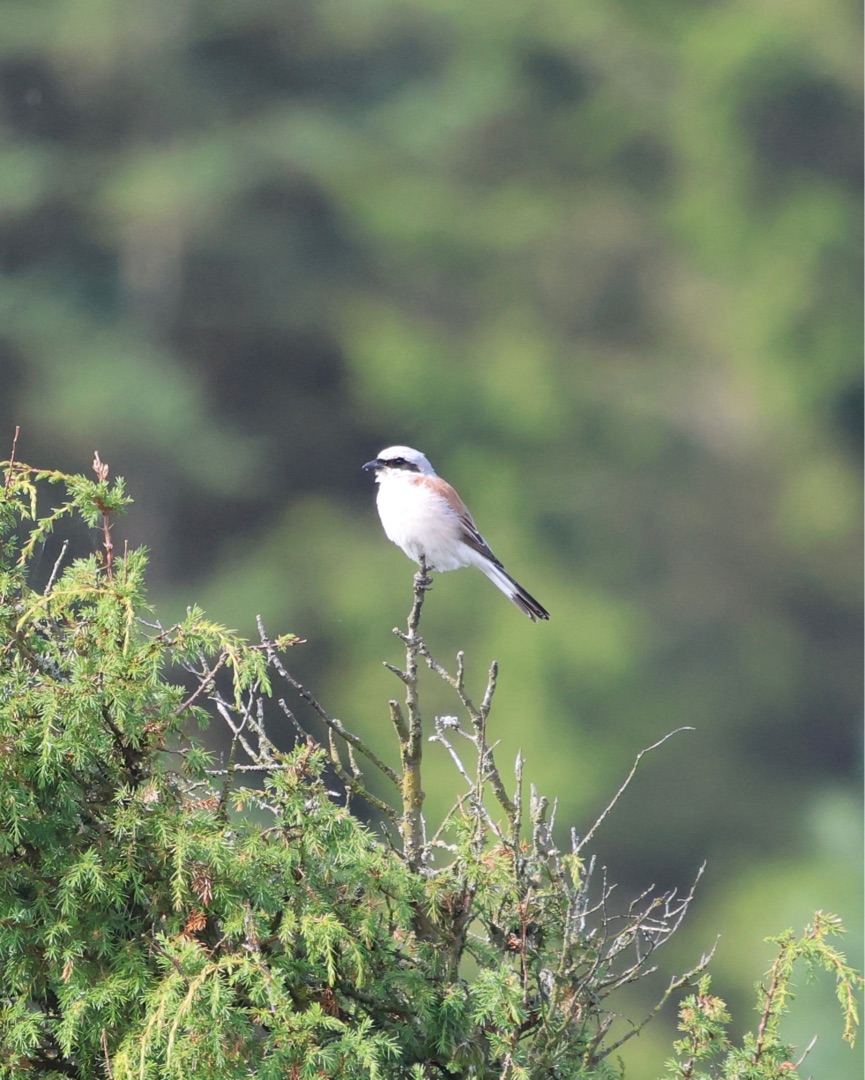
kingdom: Animalia
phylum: Chordata
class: Aves
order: Passeriformes
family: Laniidae
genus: Lanius
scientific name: Lanius collurio
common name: Rødrygget tornskade
